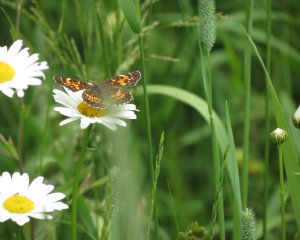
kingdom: Animalia
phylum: Arthropoda
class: Insecta
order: Lepidoptera
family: Nymphalidae
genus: Chlosyne
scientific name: Chlosyne harrisii
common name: Harris's Checkerspot
